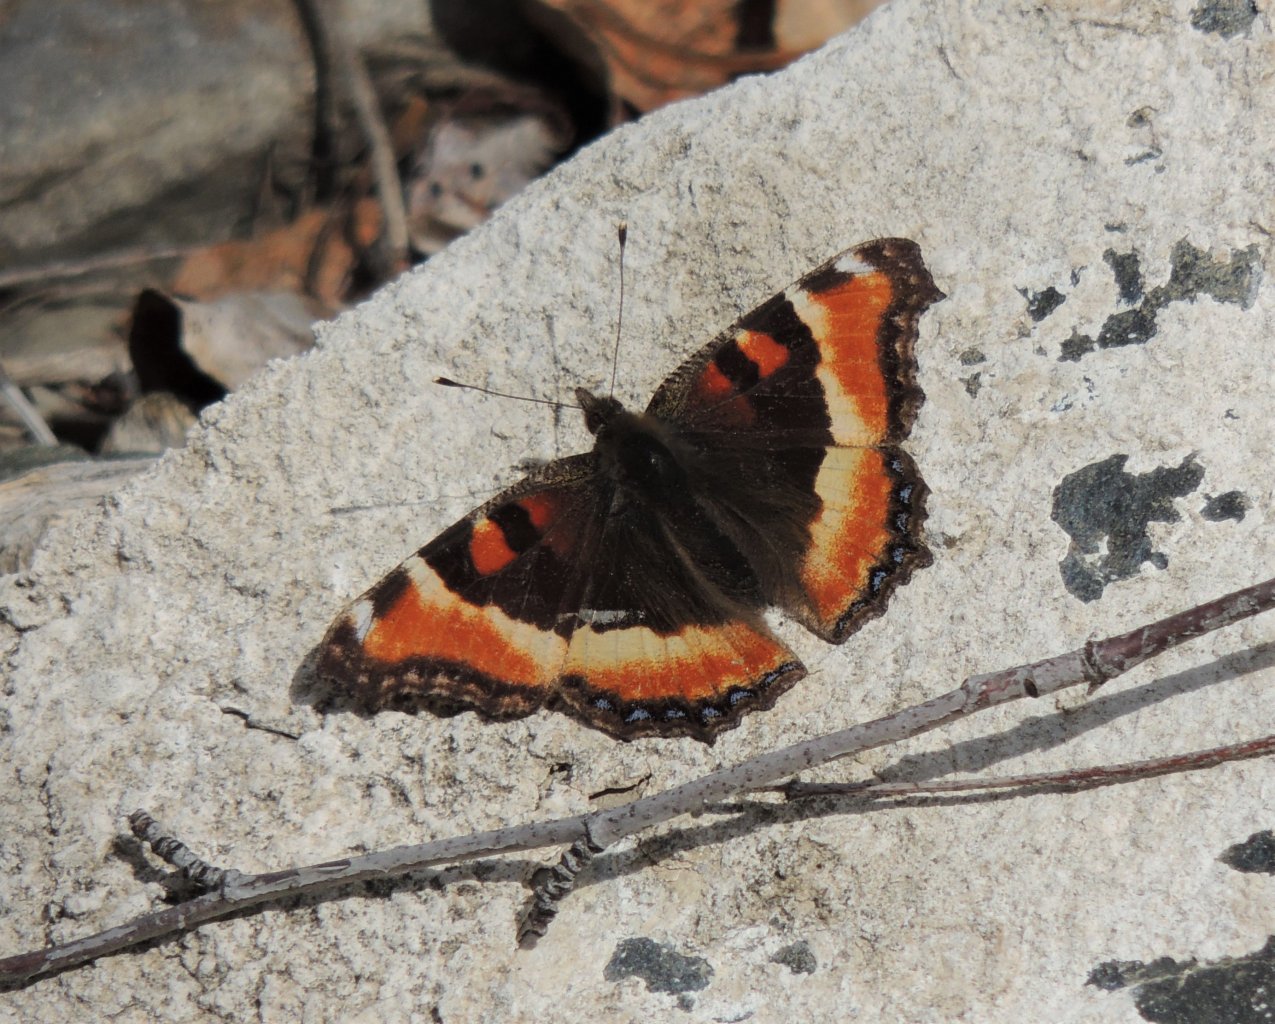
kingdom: Animalia
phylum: Arthropoda
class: Insecta
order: Lepidoptera
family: Nymphalidae
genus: Aglais
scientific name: Aglais milberti
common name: Milbert's Tortoiseshell
